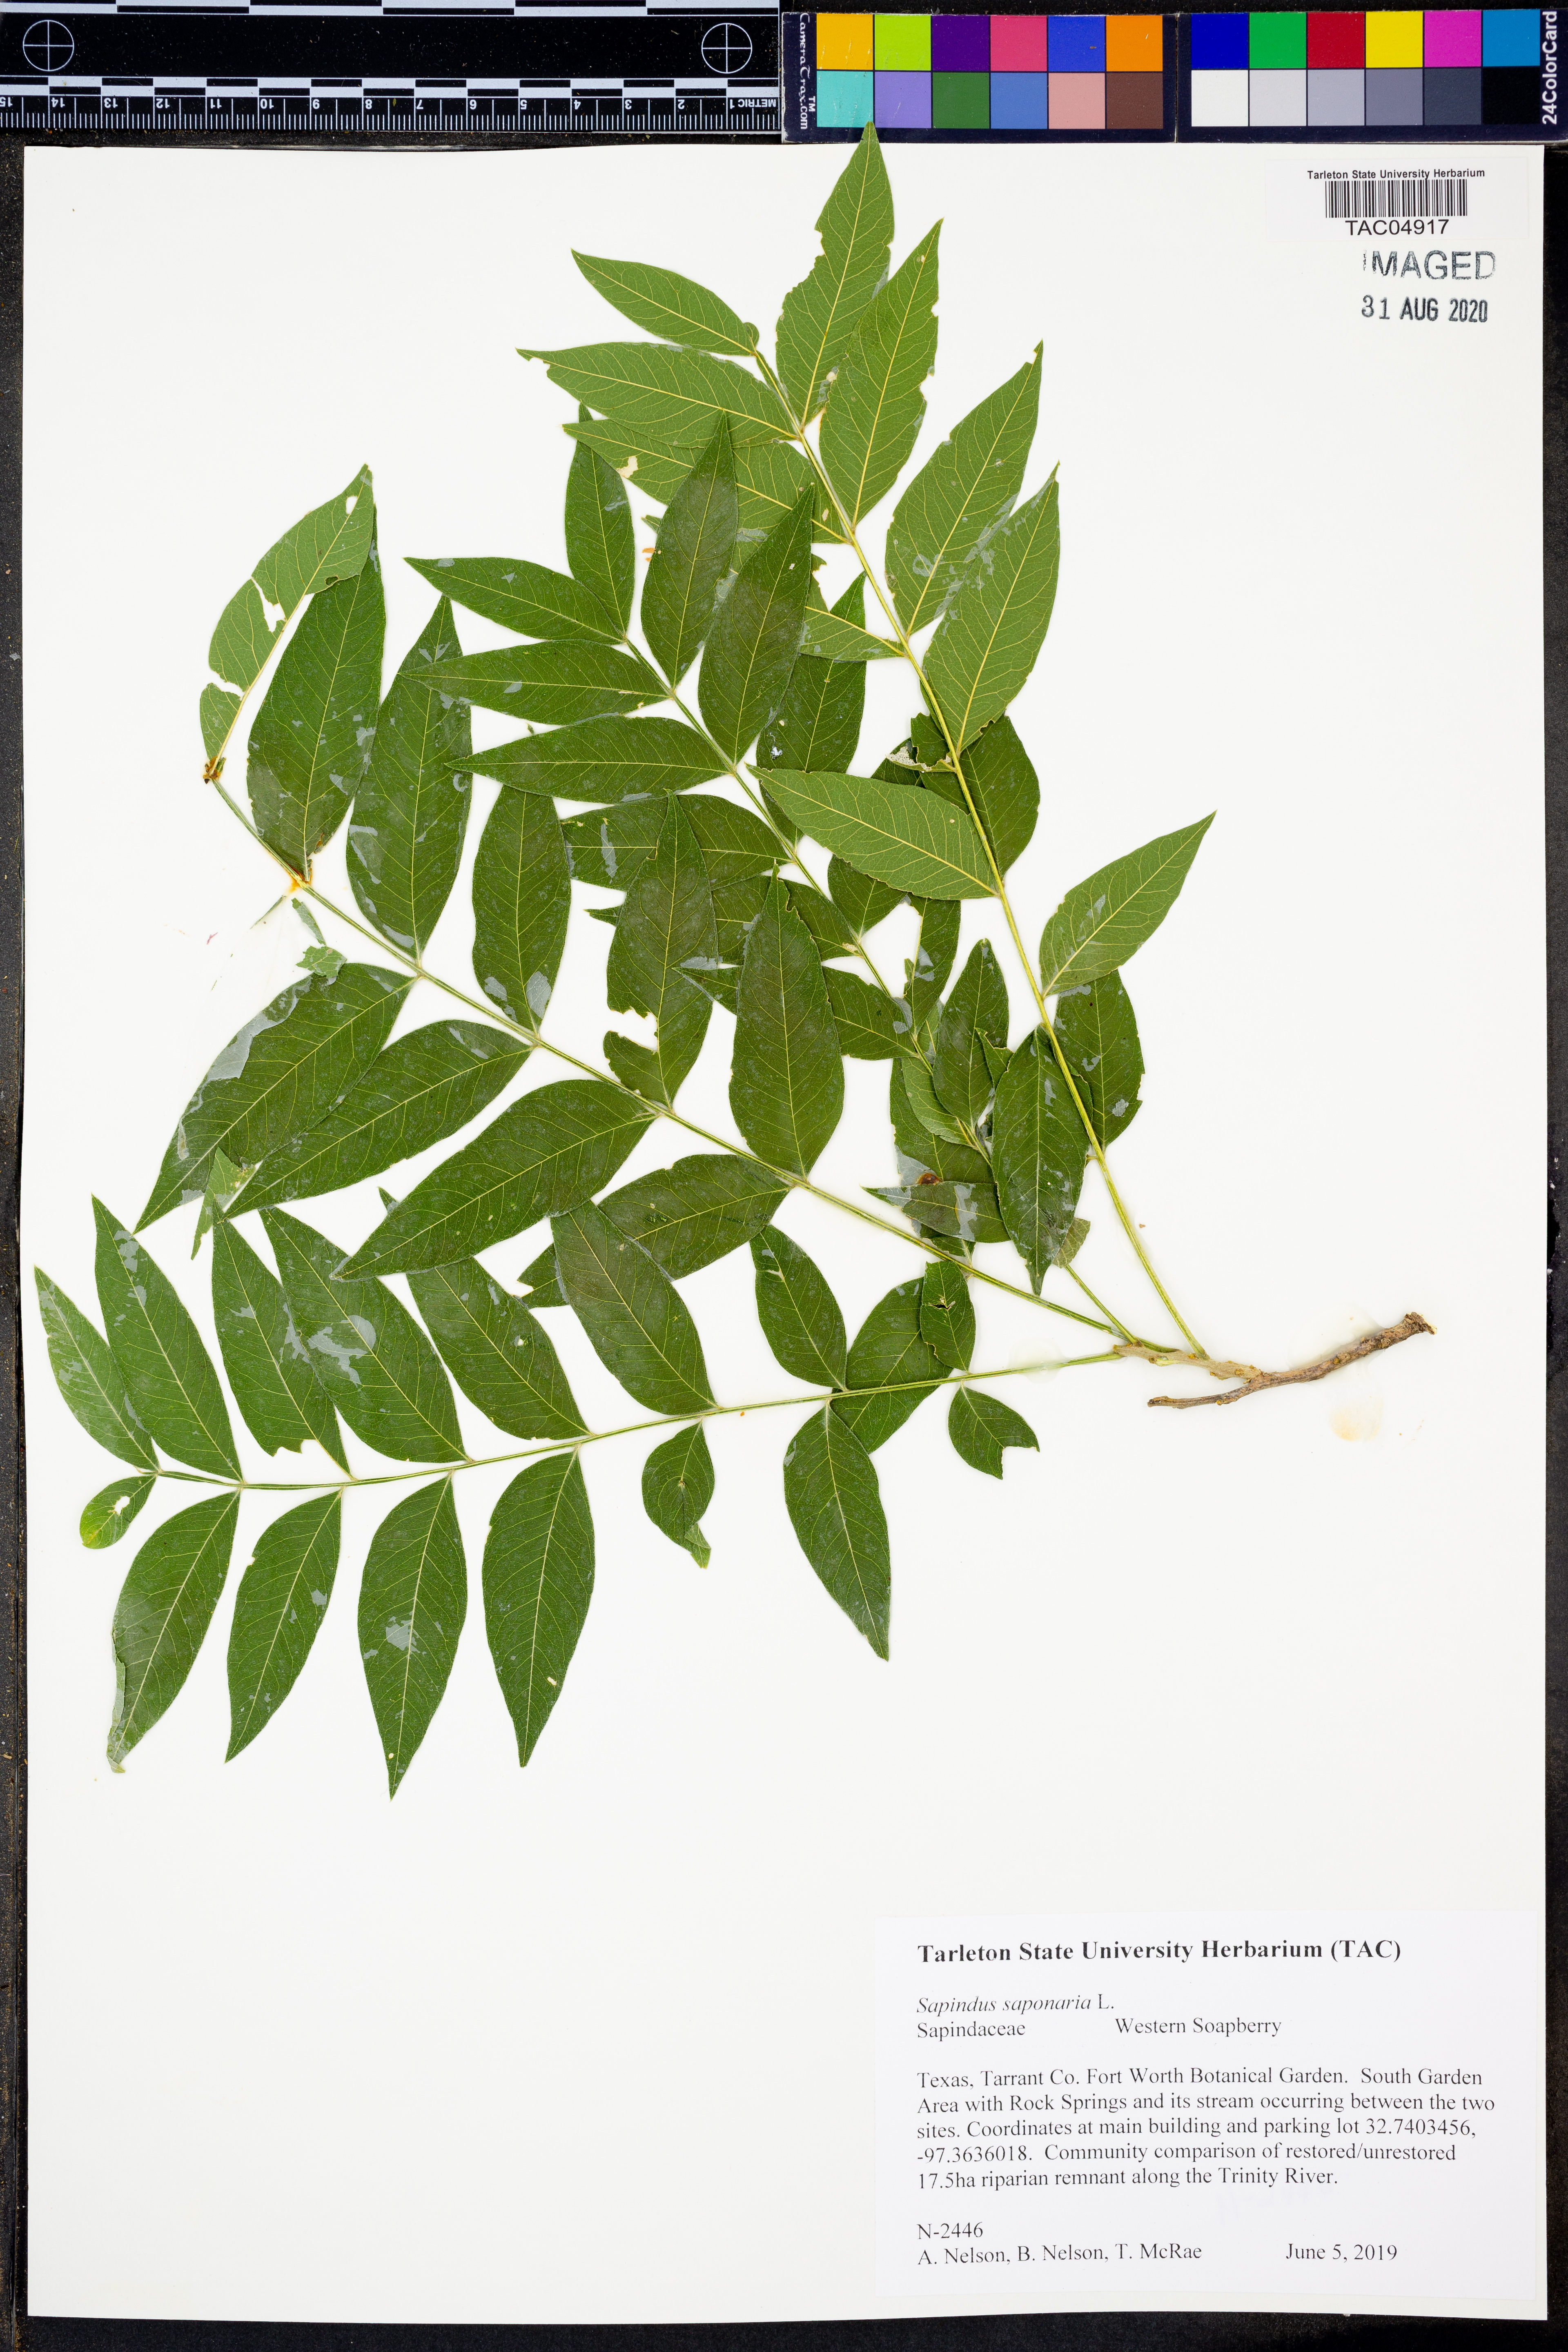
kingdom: Plantae
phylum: Tracheophyta
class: Magnoliopsida
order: Sapindales
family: Sapindaceae
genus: Sapindus
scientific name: Sapindus saponaria
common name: Wingleaf soapberry
